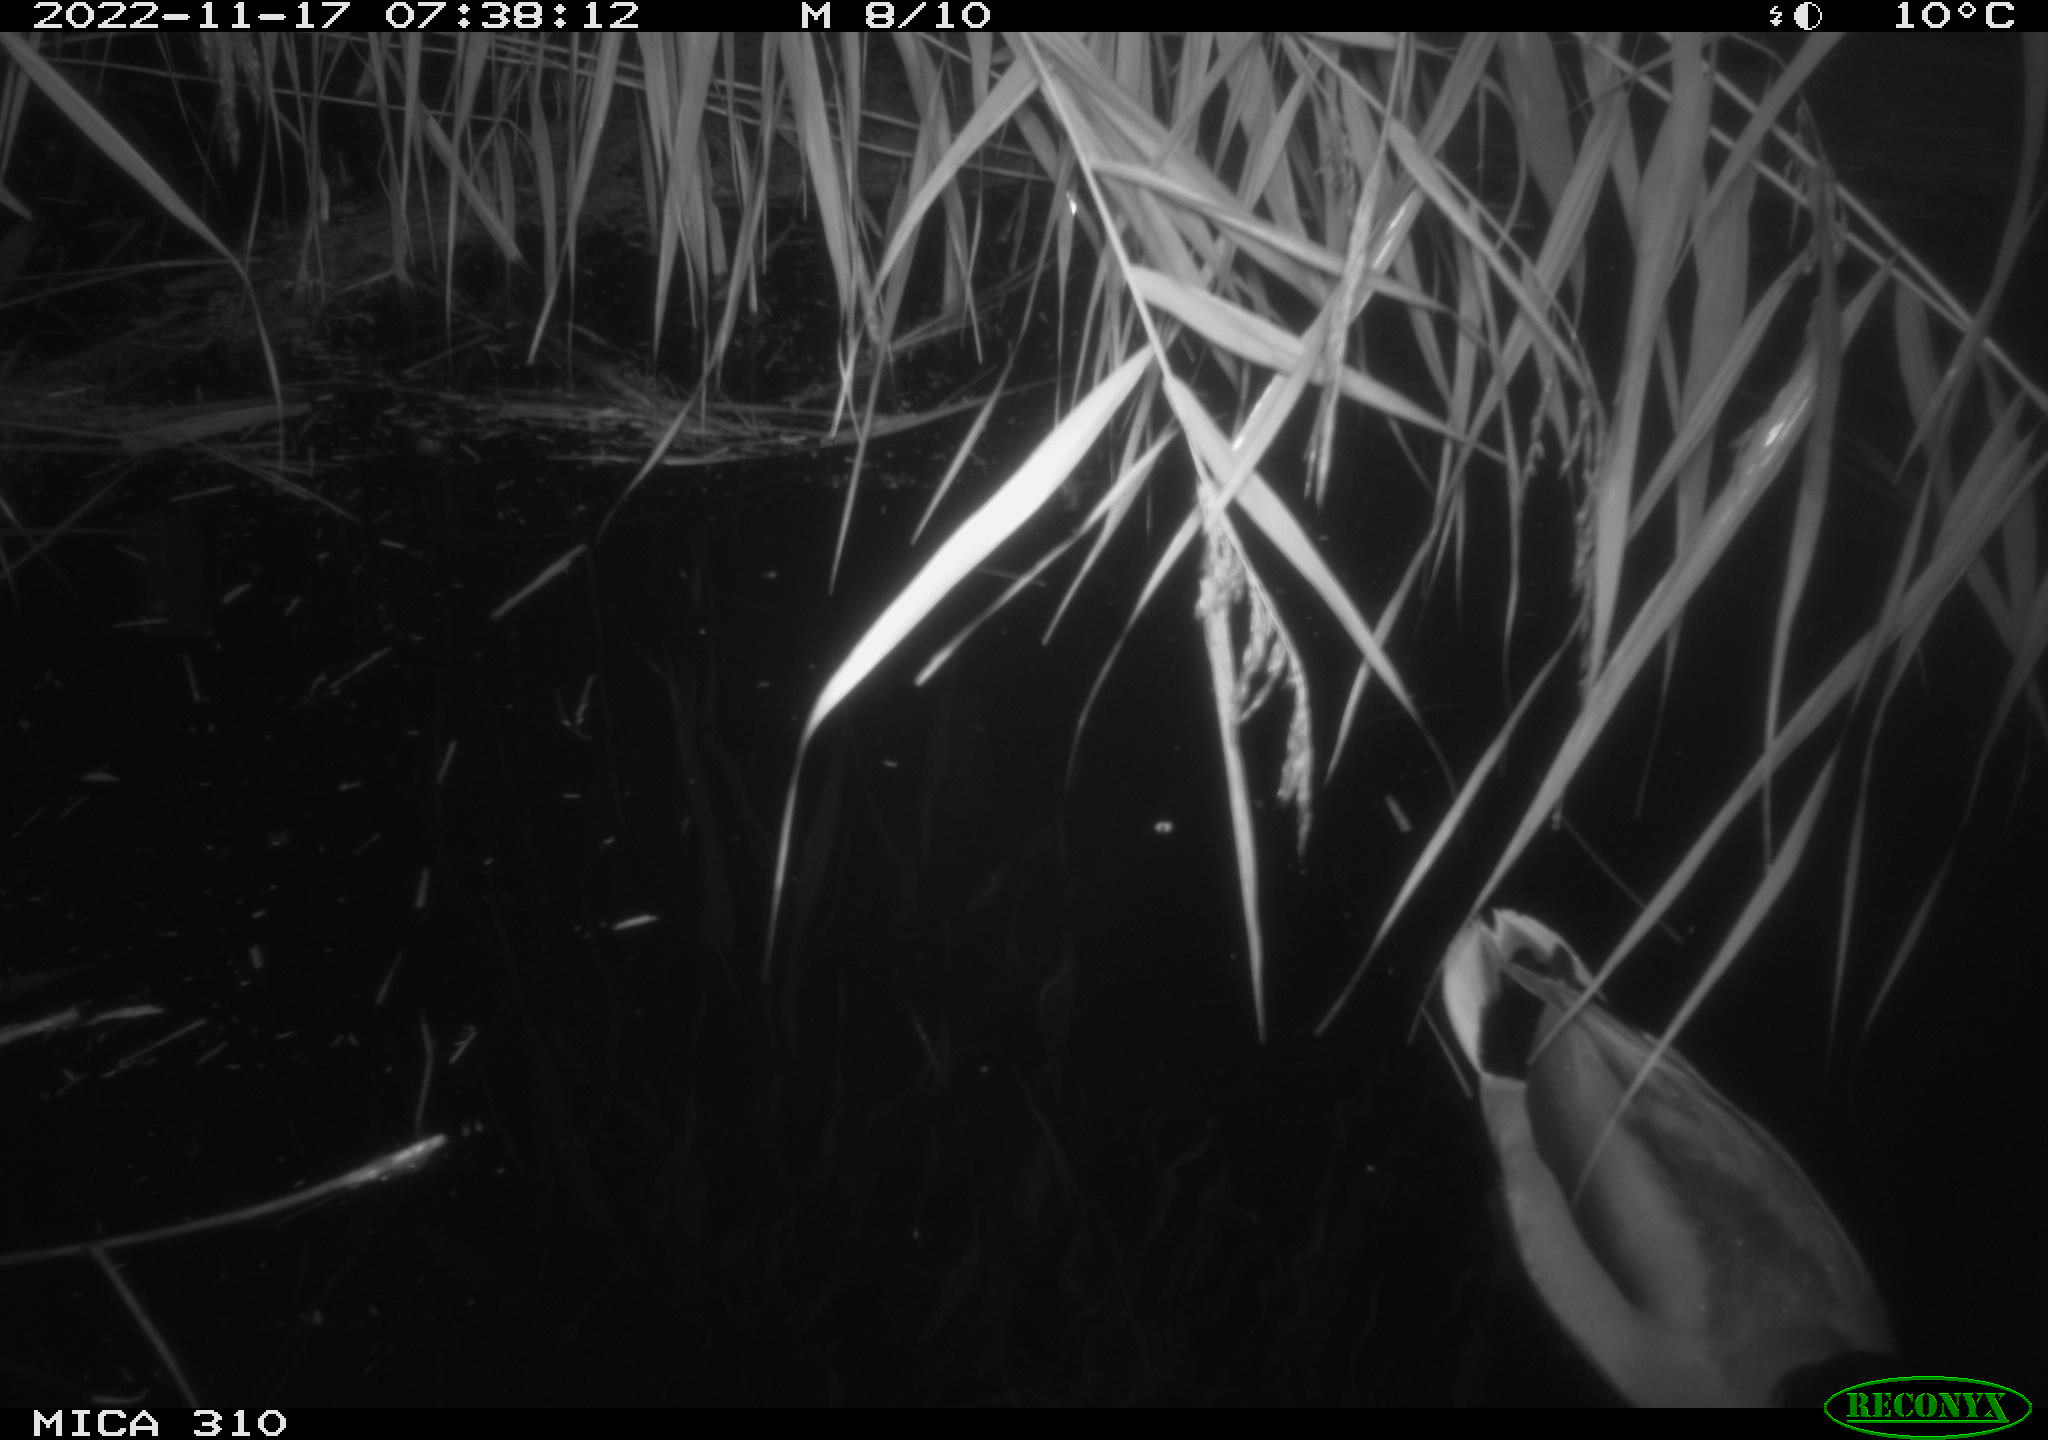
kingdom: Animalia
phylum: Chordata
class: Aves
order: Anseriformes
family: Anatidae
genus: Anas
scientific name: Anas
